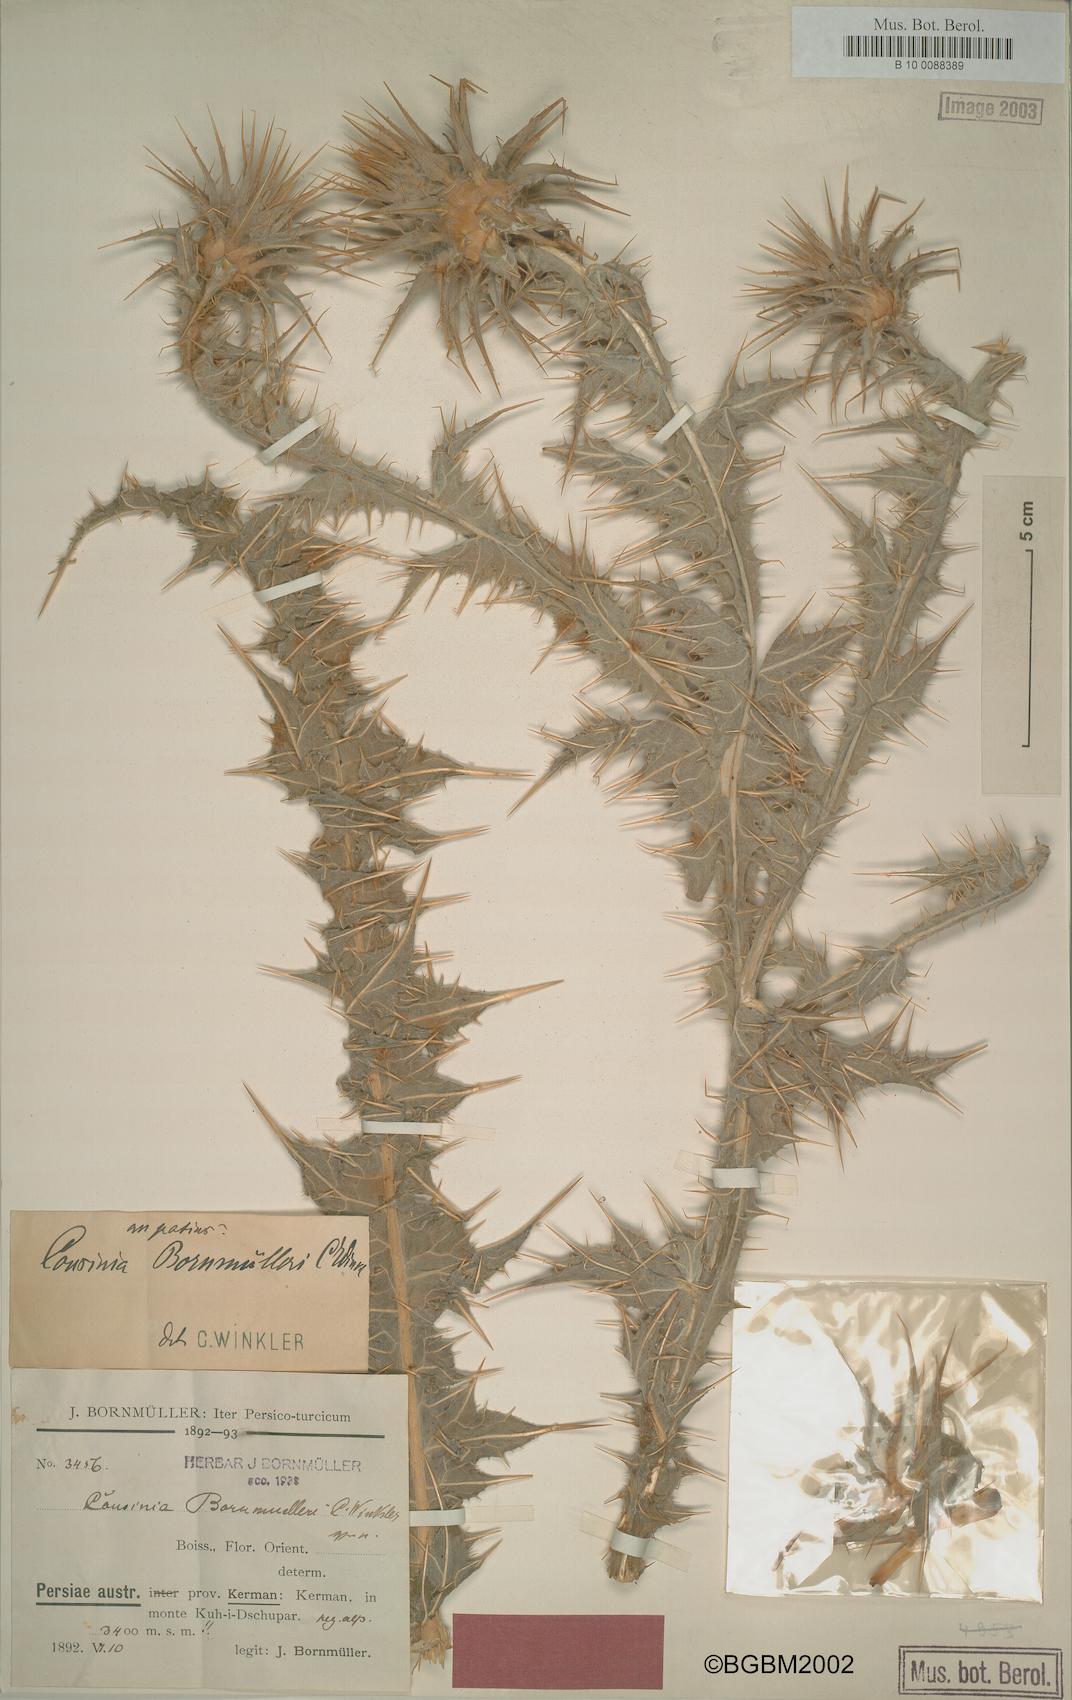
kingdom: Plantae
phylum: Tracheophyta
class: Magnoliopsida
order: Asterales
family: Asteraceae
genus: Cousinia
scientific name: Cousinia onopordioides
